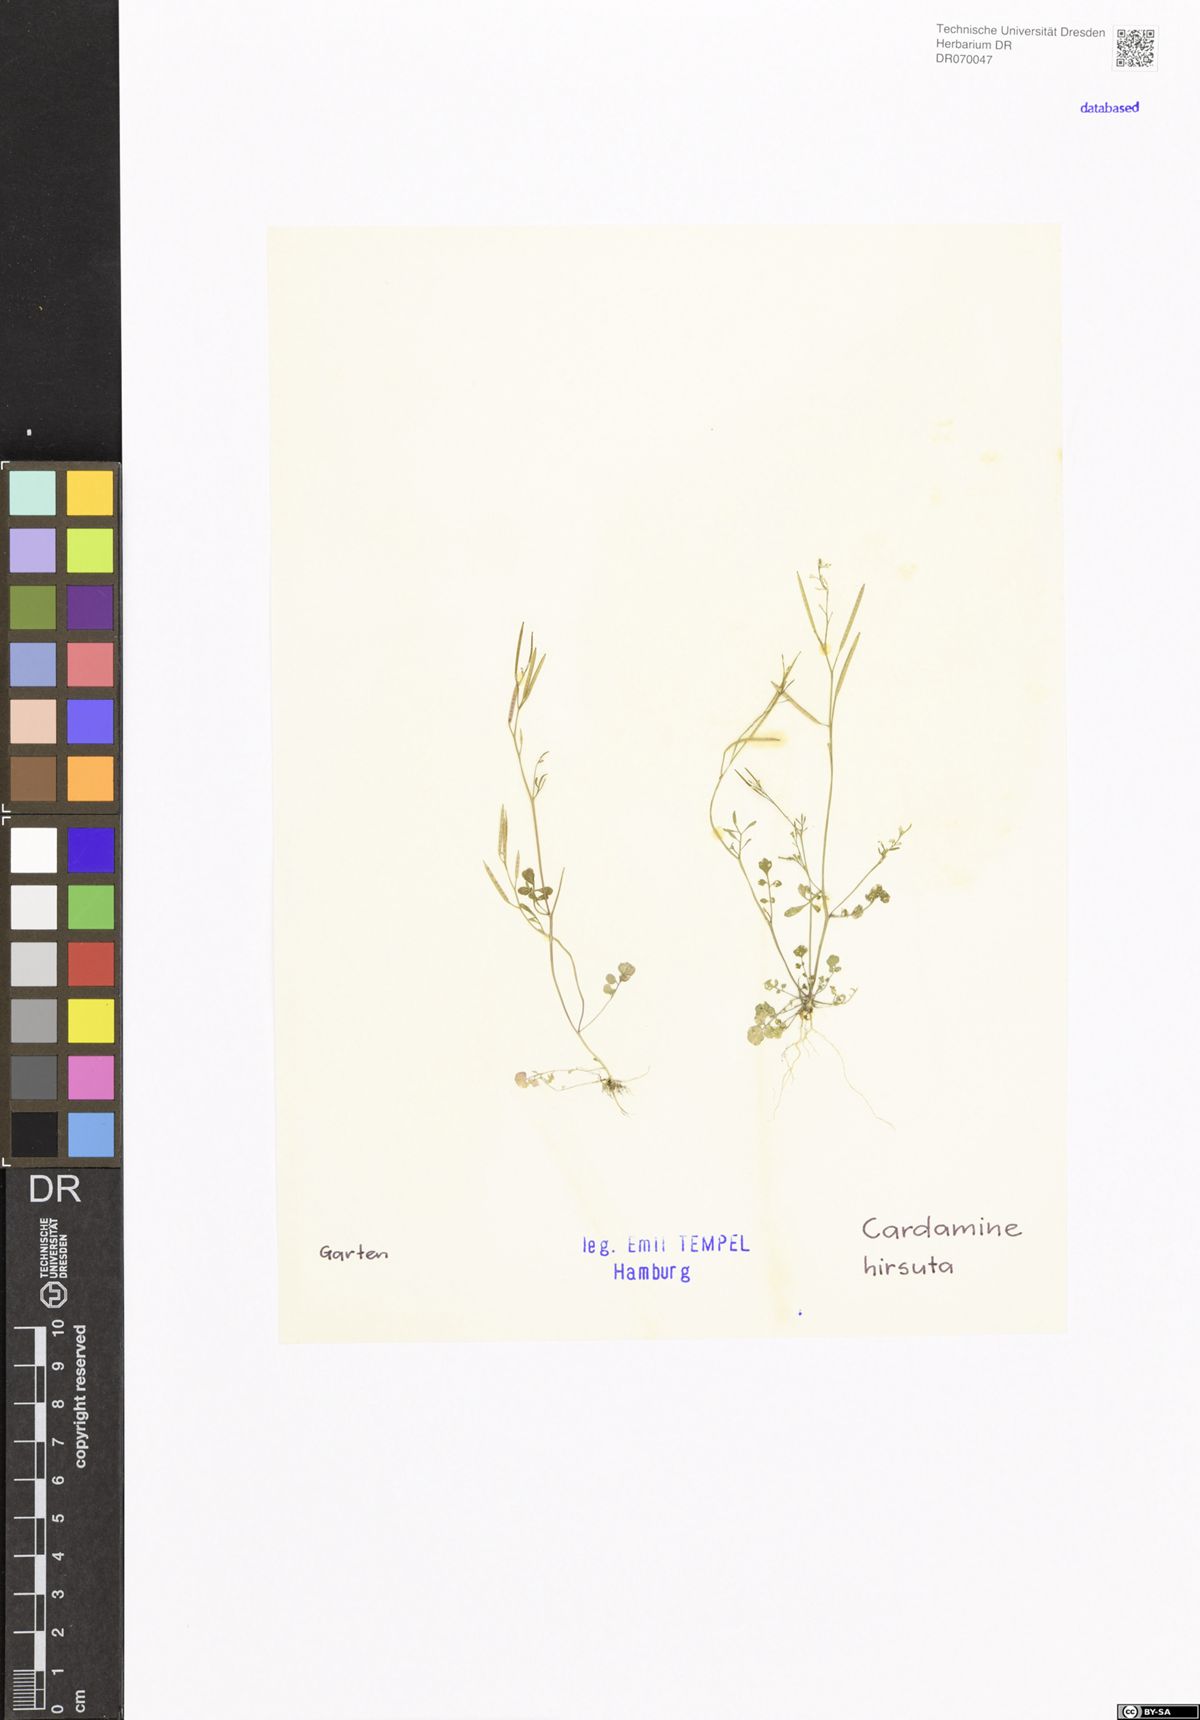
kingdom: Plantae
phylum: Tracheophyta
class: Magnoliopsida
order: Brassicales
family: Brassicaceae
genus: Cardamine
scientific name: Cardamine hirsuta
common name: Hairy bittercress
